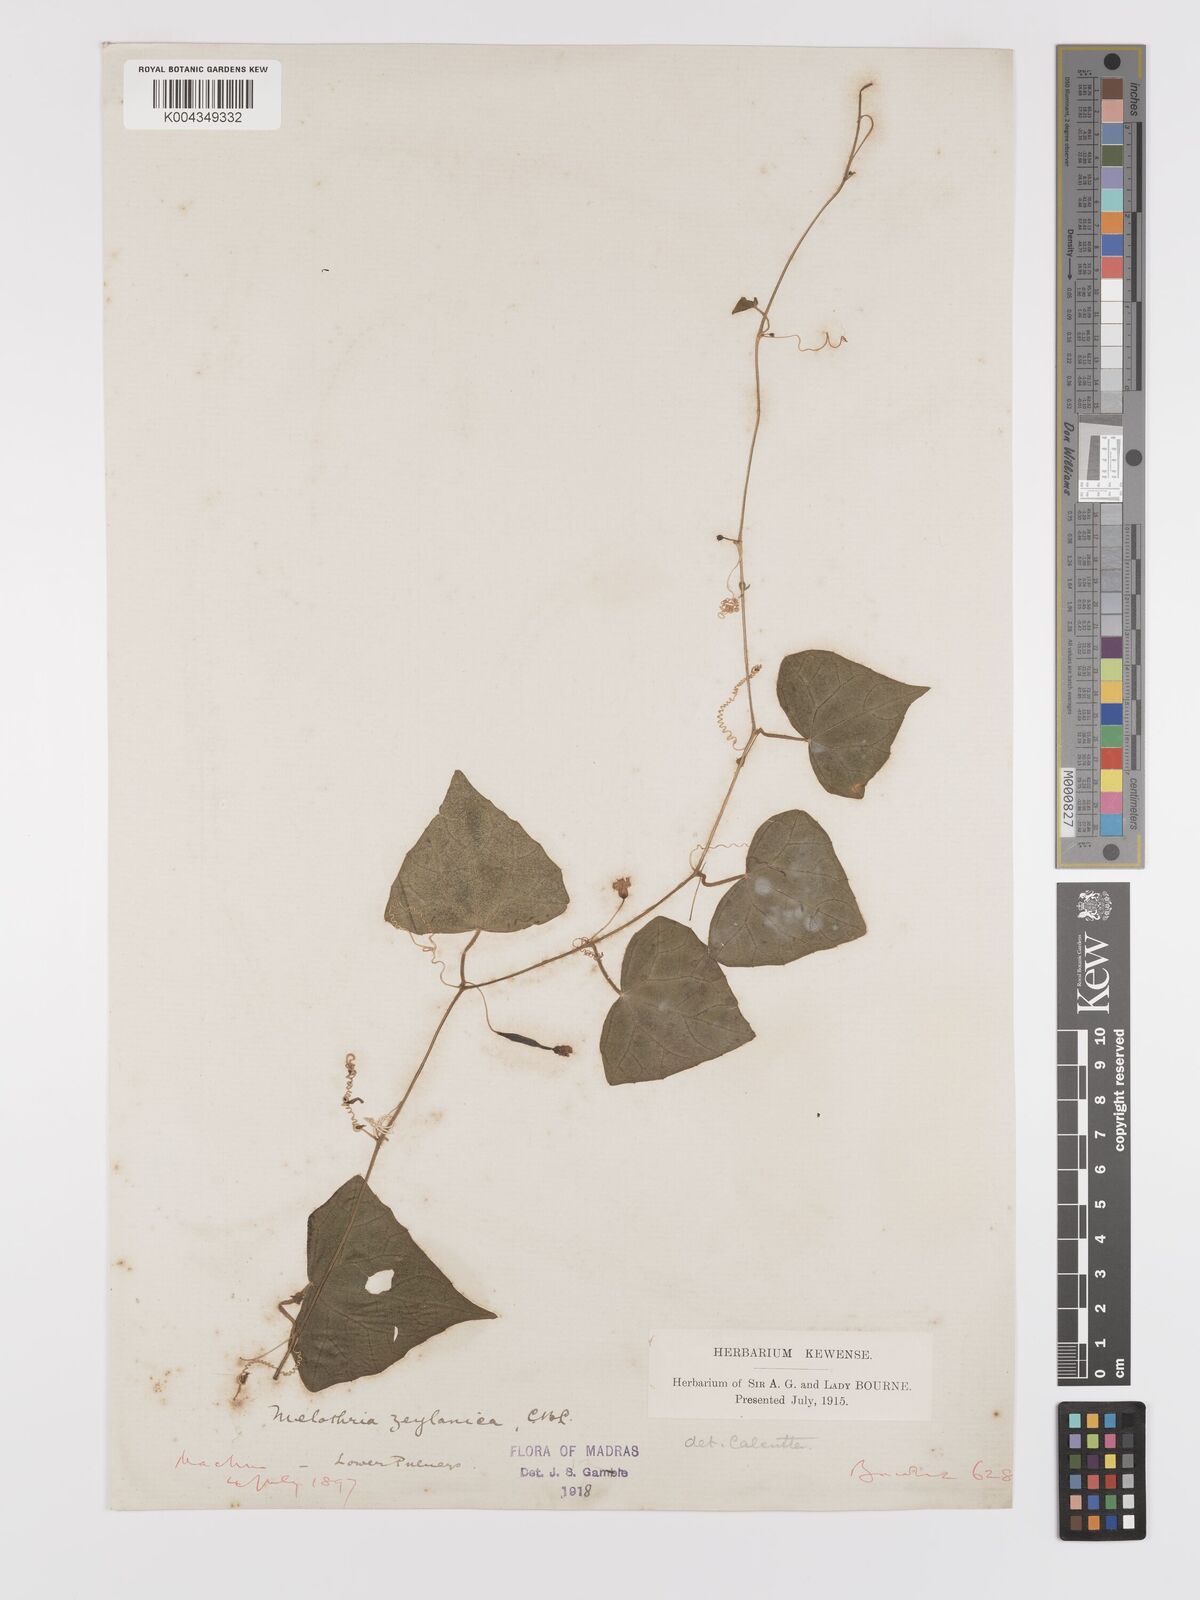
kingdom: Plantae
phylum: Tracheophyta
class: Magnoliopsida
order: Cucurbitales
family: Cucurbitaceae
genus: Zehneria
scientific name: Zehneria thwaitesii
